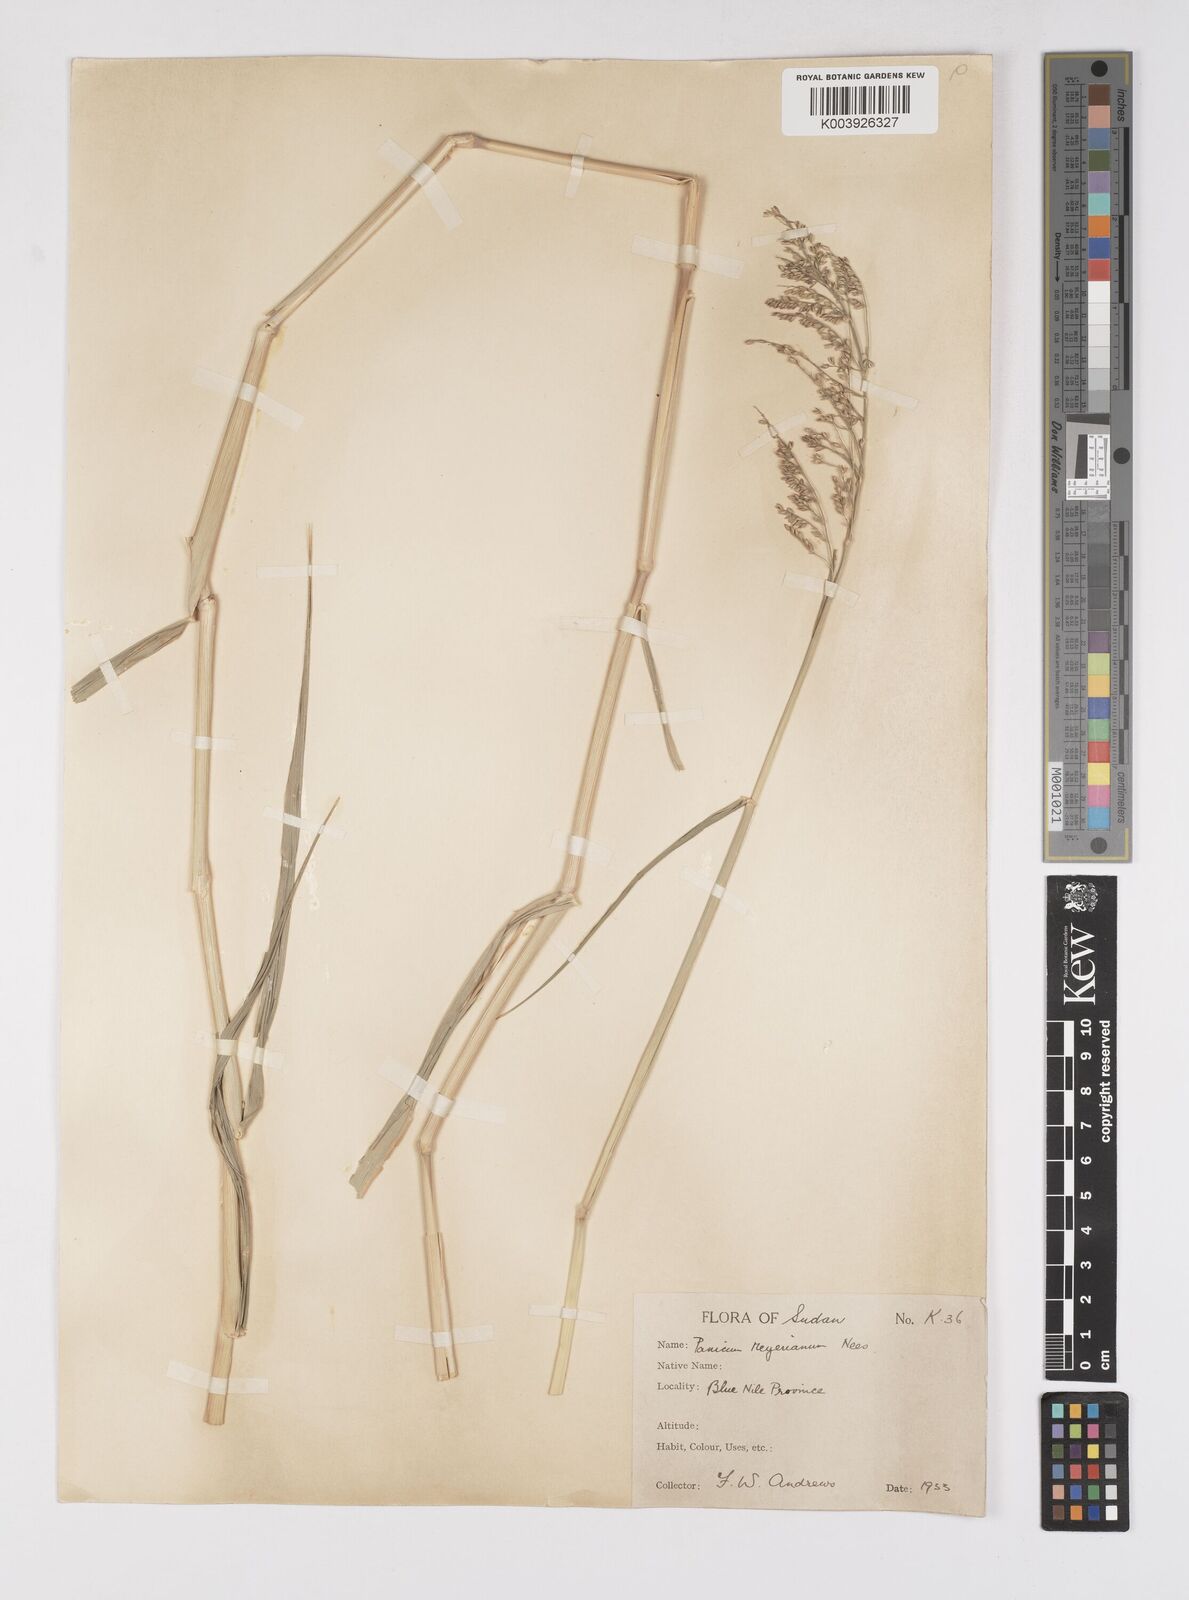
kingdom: Plantae
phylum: Tracheophyta
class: Liliopsida
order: Poales
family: Poaceae
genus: Eriochloa
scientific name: Eriochloa meyeriana
